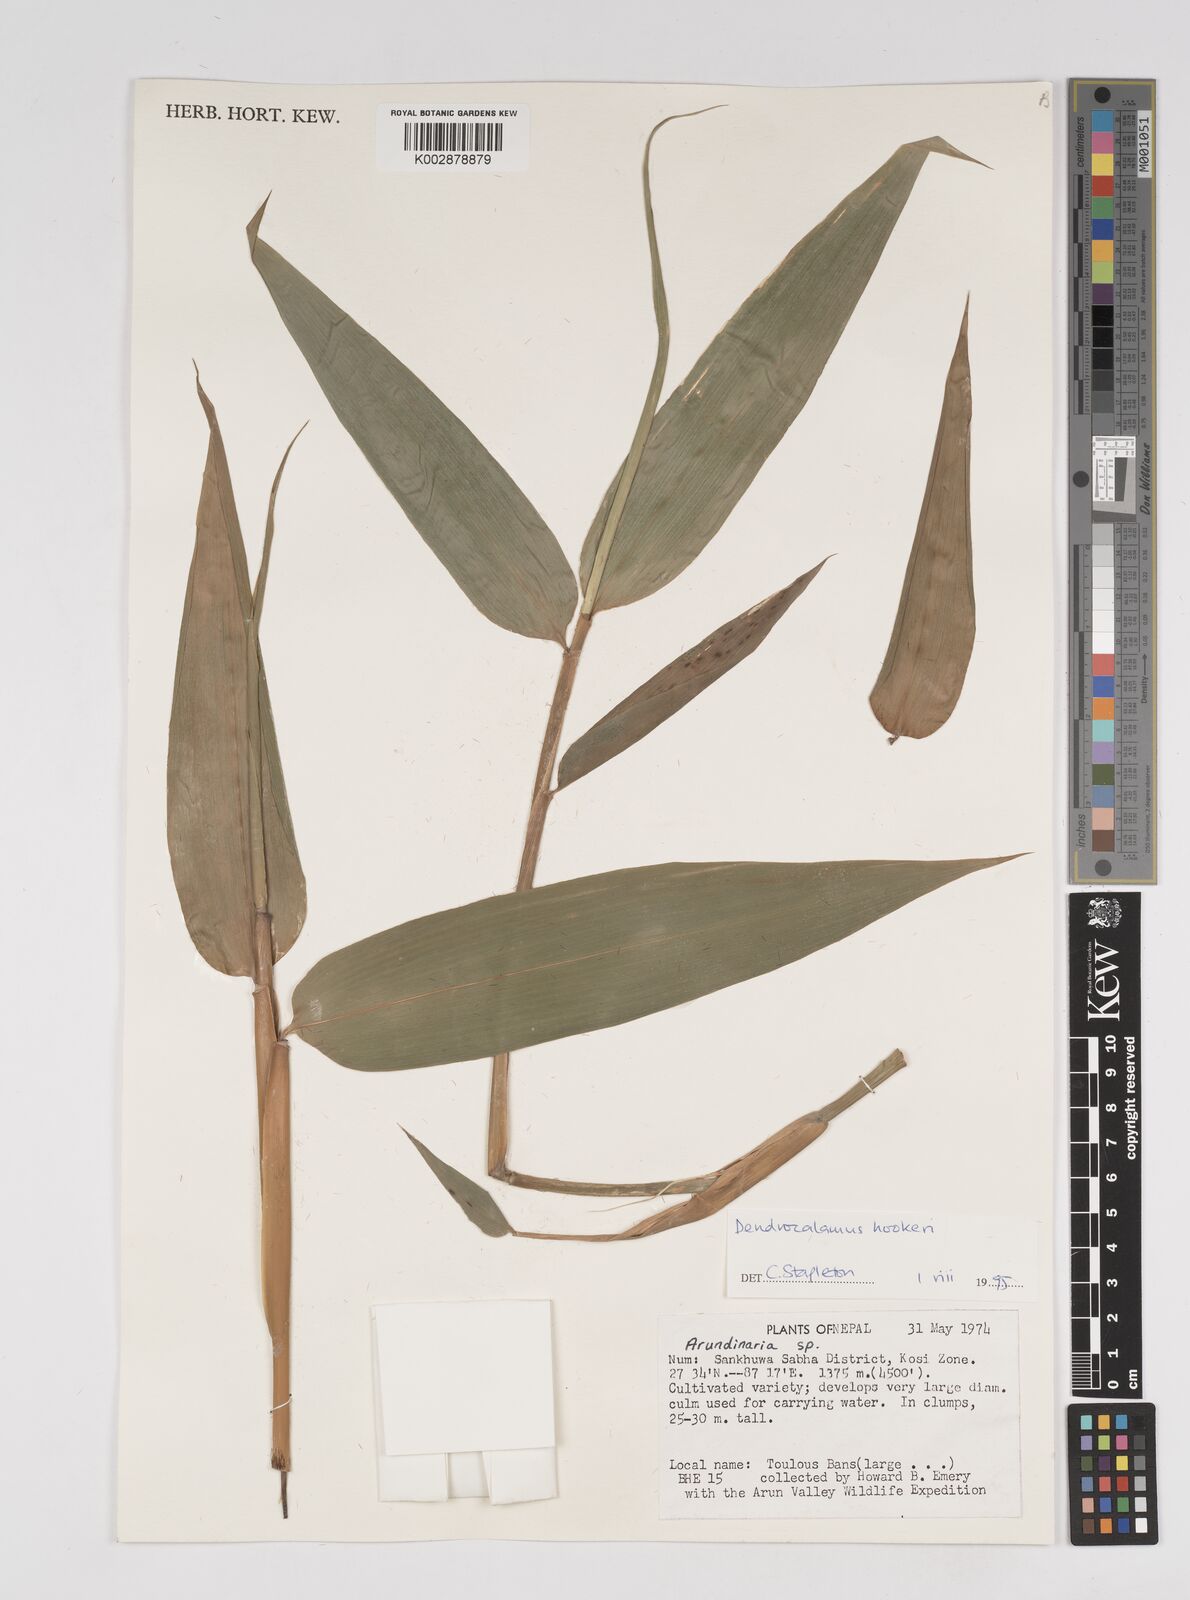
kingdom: Plantae
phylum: Tracheophyta
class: Liliopsida
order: Poales
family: Poaceae
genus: Dendrocalamus
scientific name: Dendrocalamus hookeri
